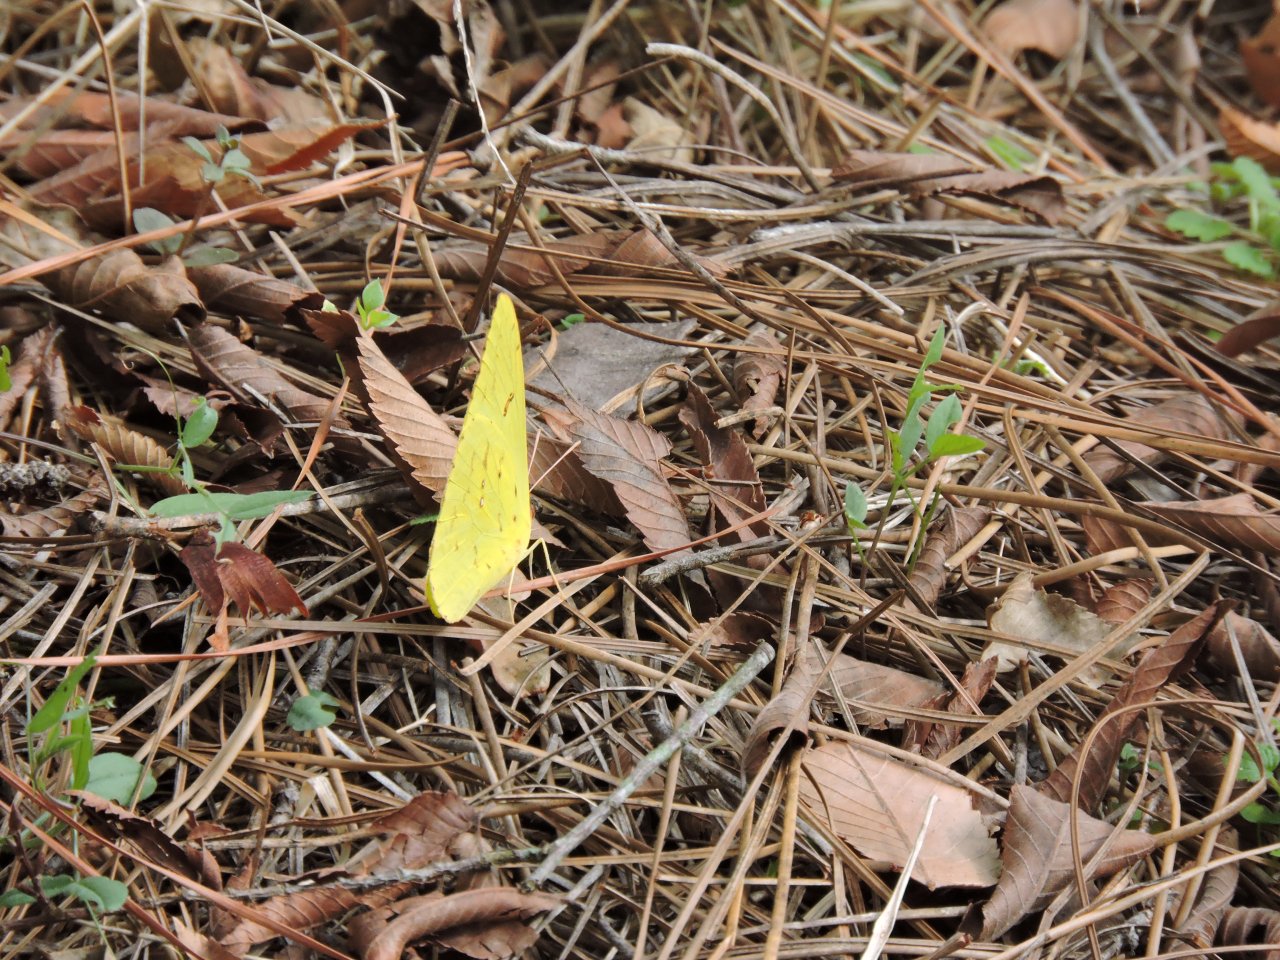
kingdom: Animalia
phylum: Arthropoda
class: Insecta
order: Lepidoptera
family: Pieridae
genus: Phoebis
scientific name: Phoebis sennae
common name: Cloudless Sulphur
